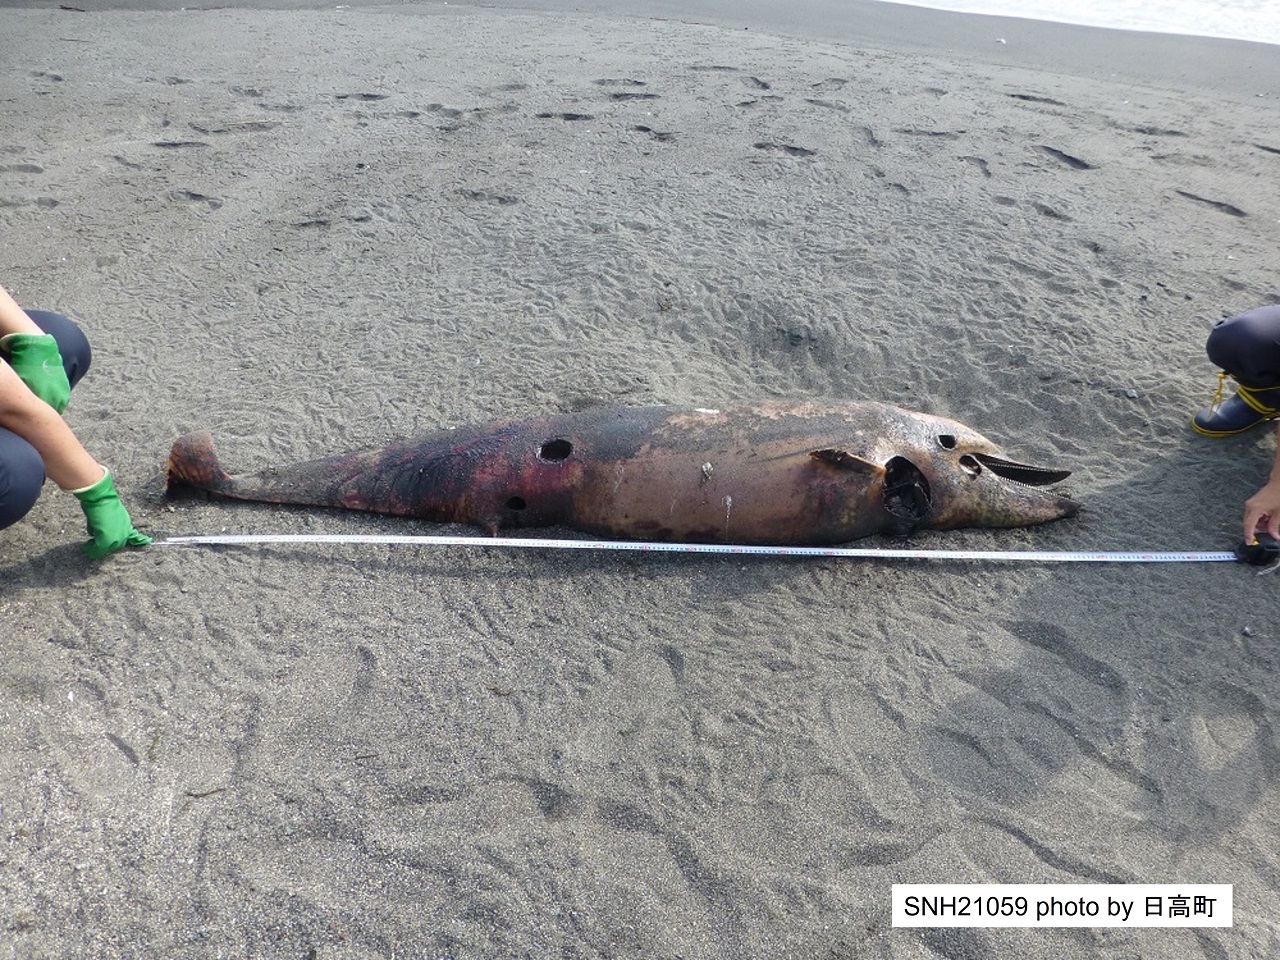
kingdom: Animalia
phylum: Chordata
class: Mammalia
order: Cetacea
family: Delphinidae
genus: Stenella
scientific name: Stenella coeruleoalba
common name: Striped dolphin
